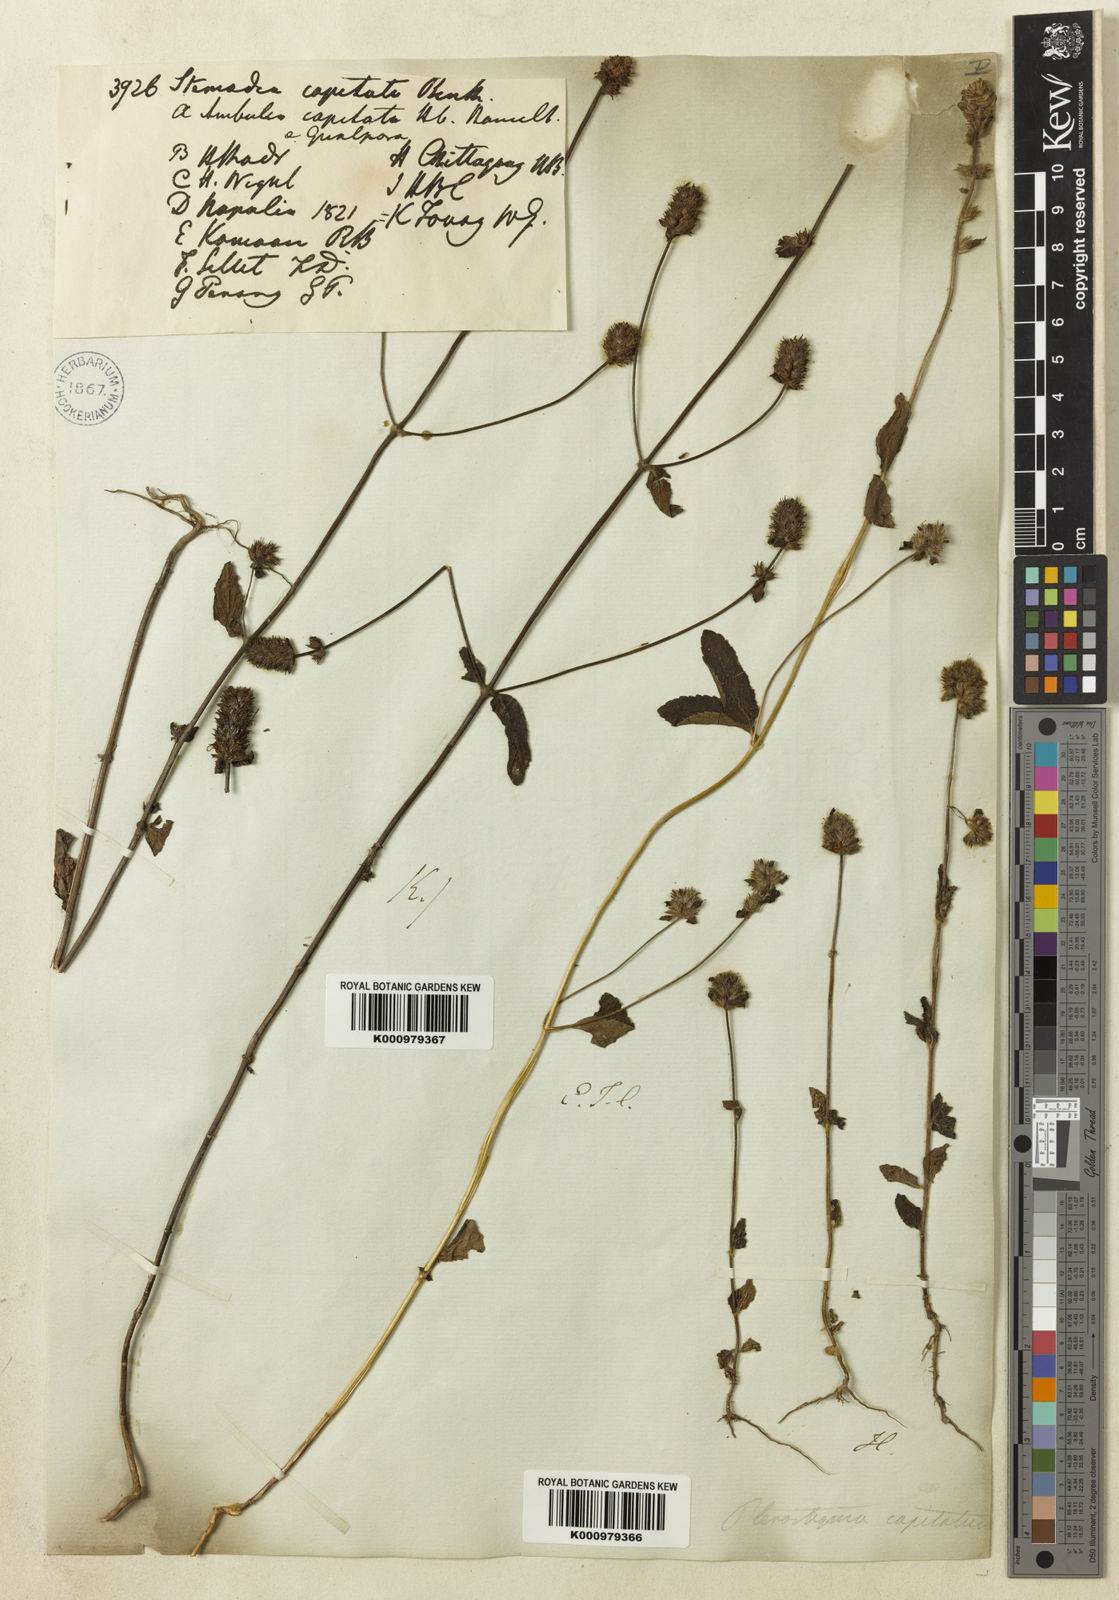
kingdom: Plantae
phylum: Tracheophyta
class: Magnoliopsida
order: Lamiales
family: Plantaginaceae
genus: Adenosma
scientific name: Adenosma indiana
